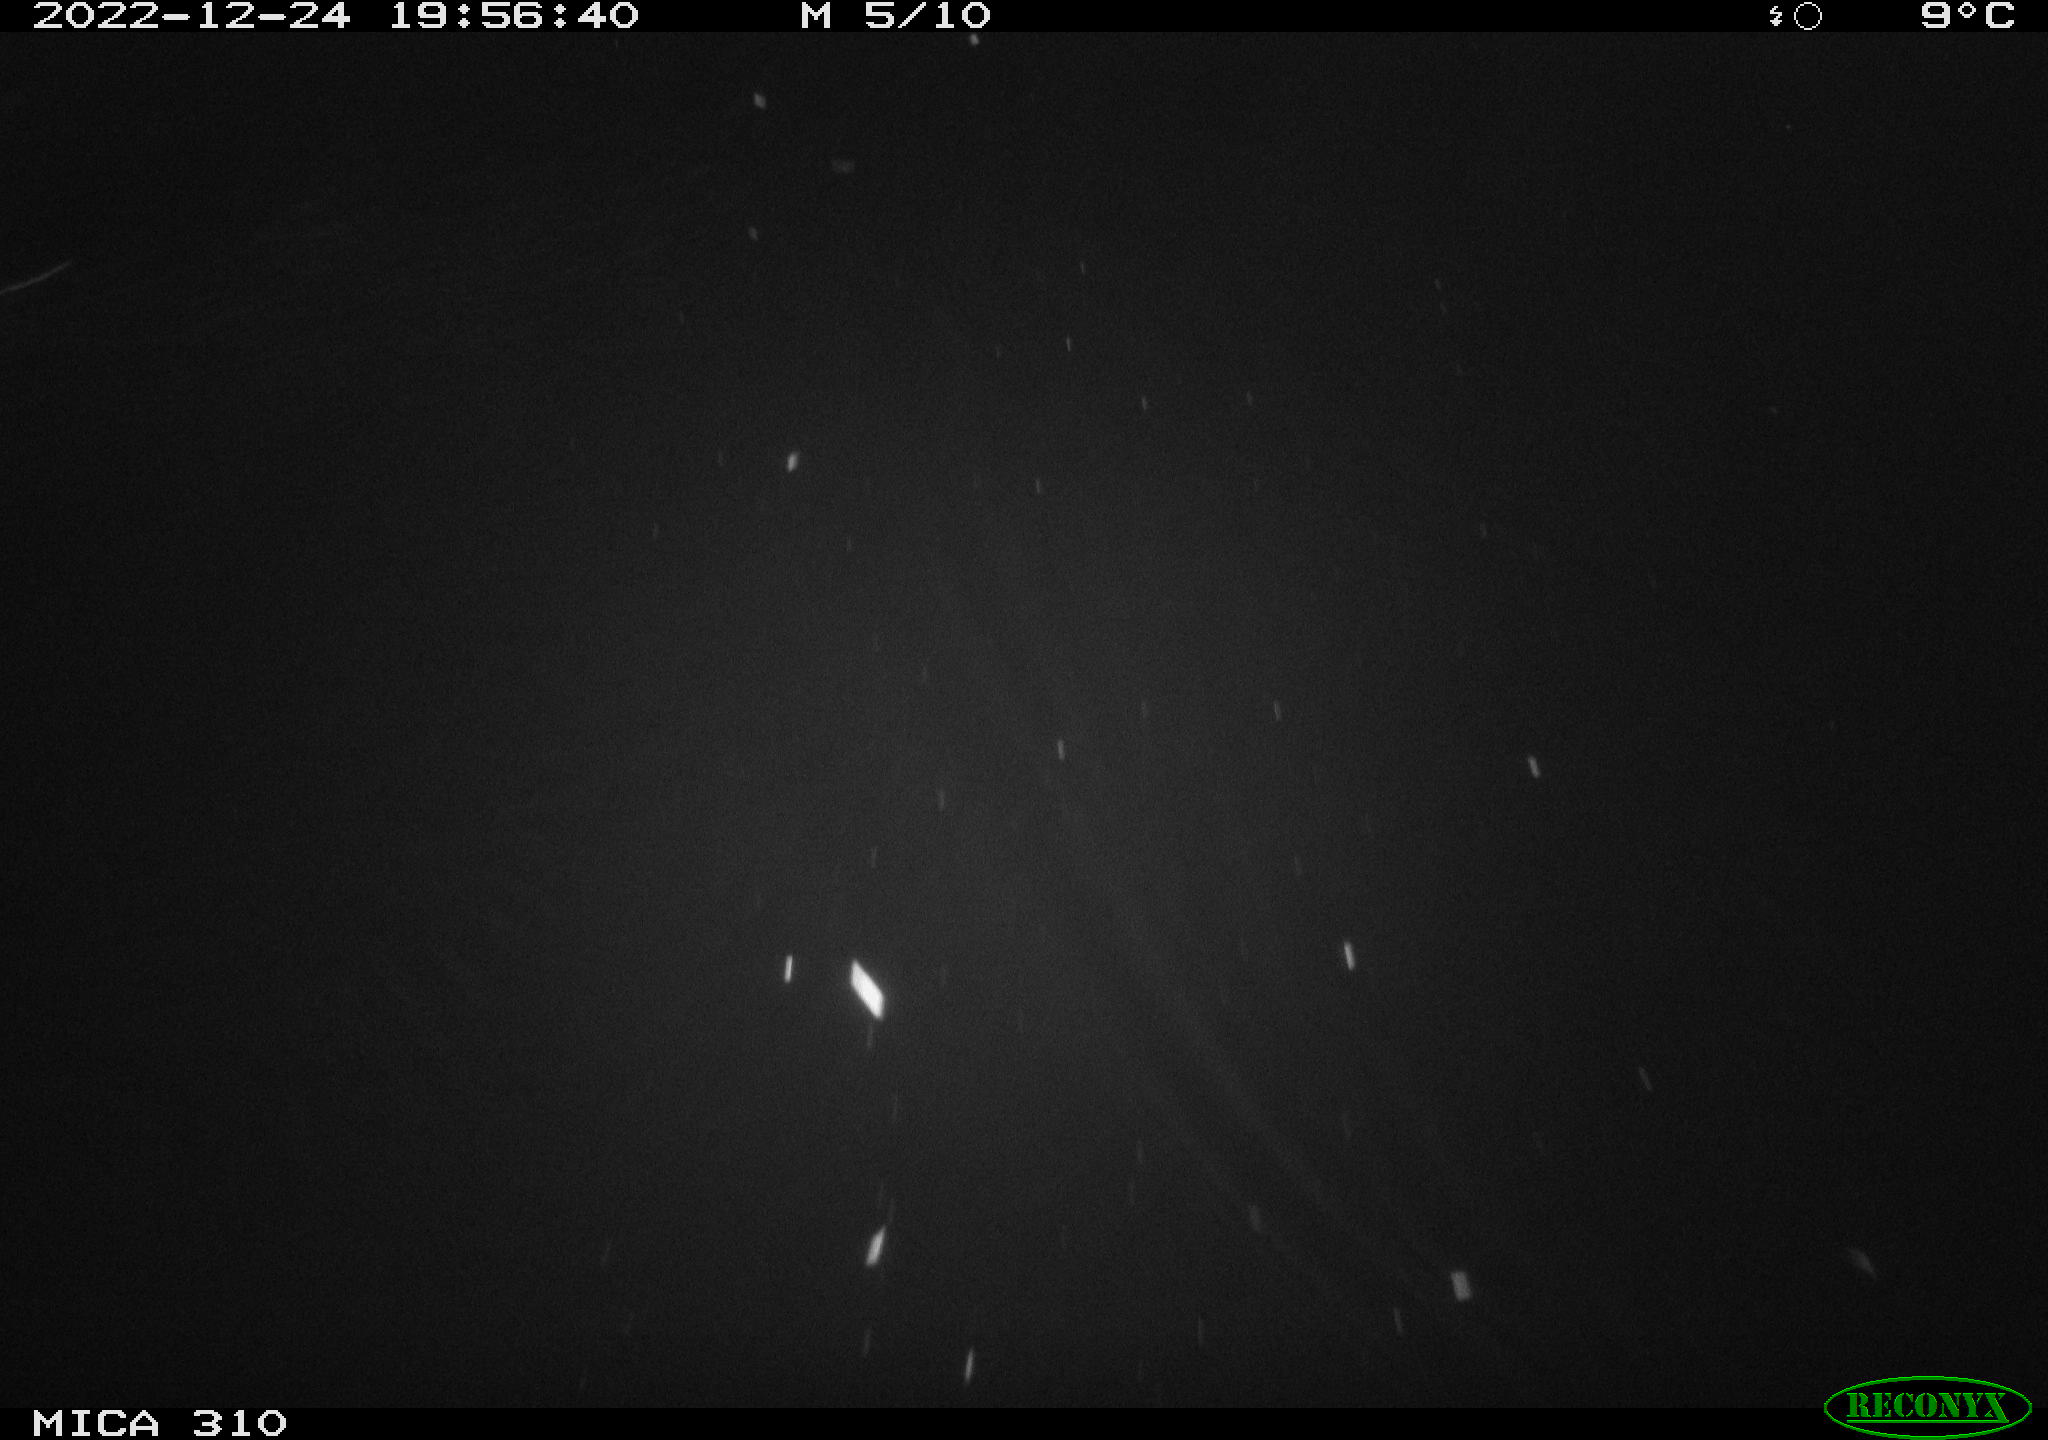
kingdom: Animalia
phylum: Chordata
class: Mammalia
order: Rodentia
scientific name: Rodentia
